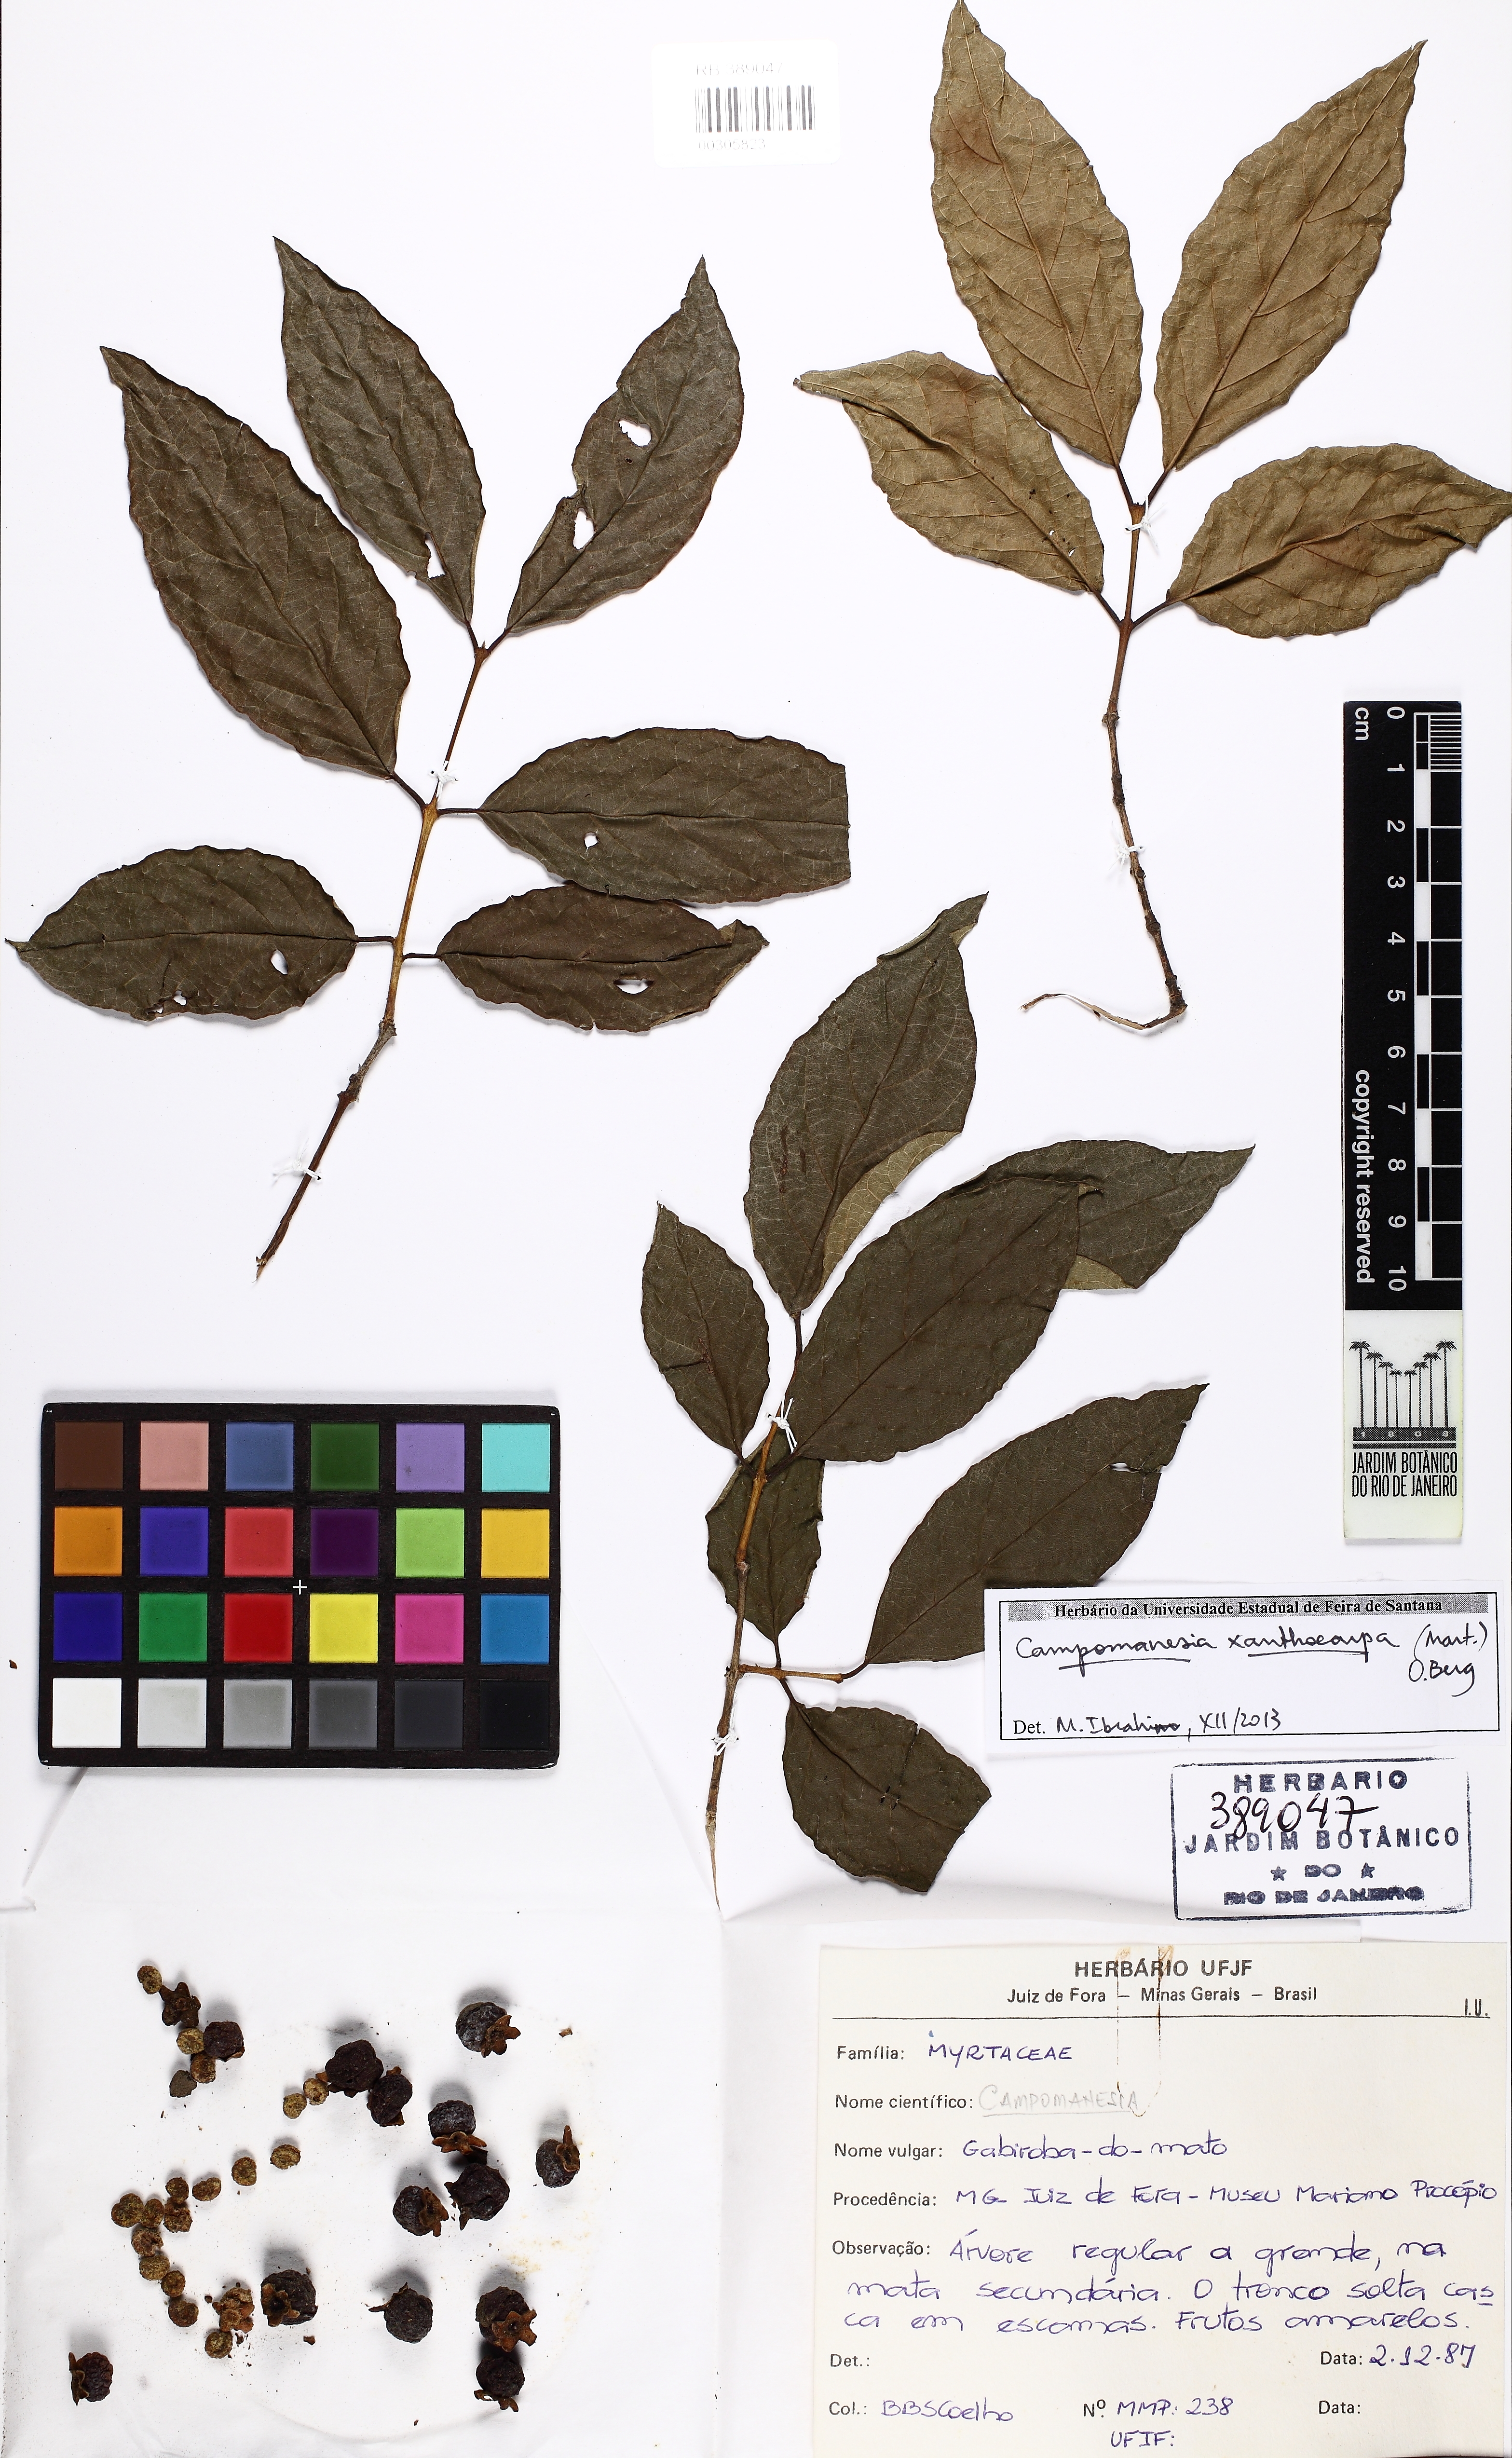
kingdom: Plantae
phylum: Tracheophyta
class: Magnoliopsida
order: Myrtales
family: Myrtaceae
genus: Campomanesia
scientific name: Campomanesia xanthocarpa
